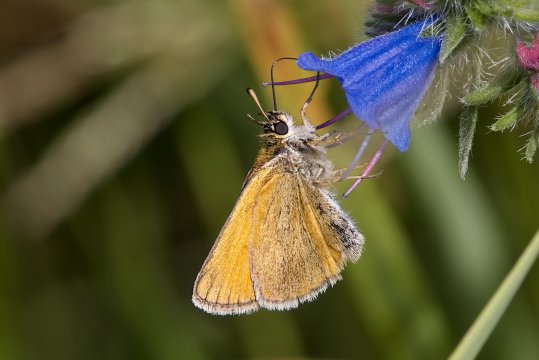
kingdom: Animalia
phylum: Arthropoda
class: Insecta
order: Lepidoptera
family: Hesperiidae
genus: Thymelicus
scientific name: Thymelicus lineola
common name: European Skipper
